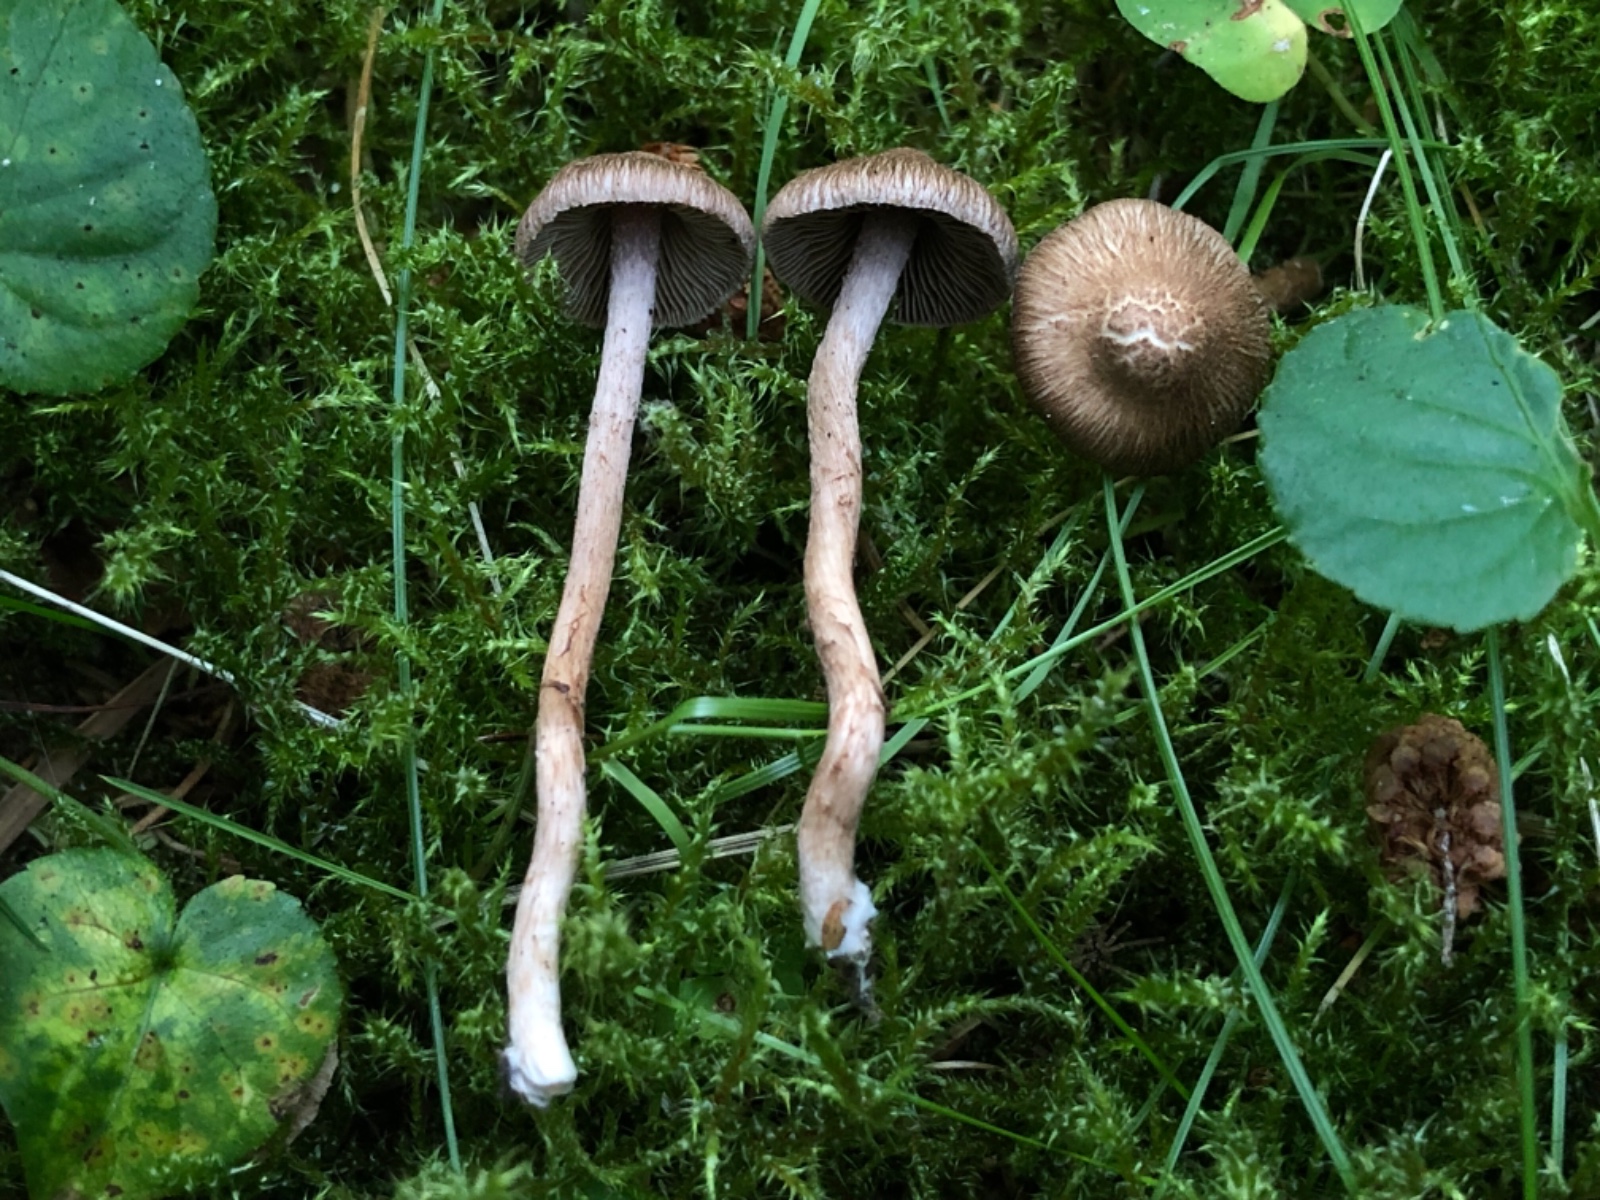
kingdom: Fungi
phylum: Basidiomycota
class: Agaricomycetes
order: Agaricales
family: Inocybaceae
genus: Inocybe
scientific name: Inocybe cincinnata
